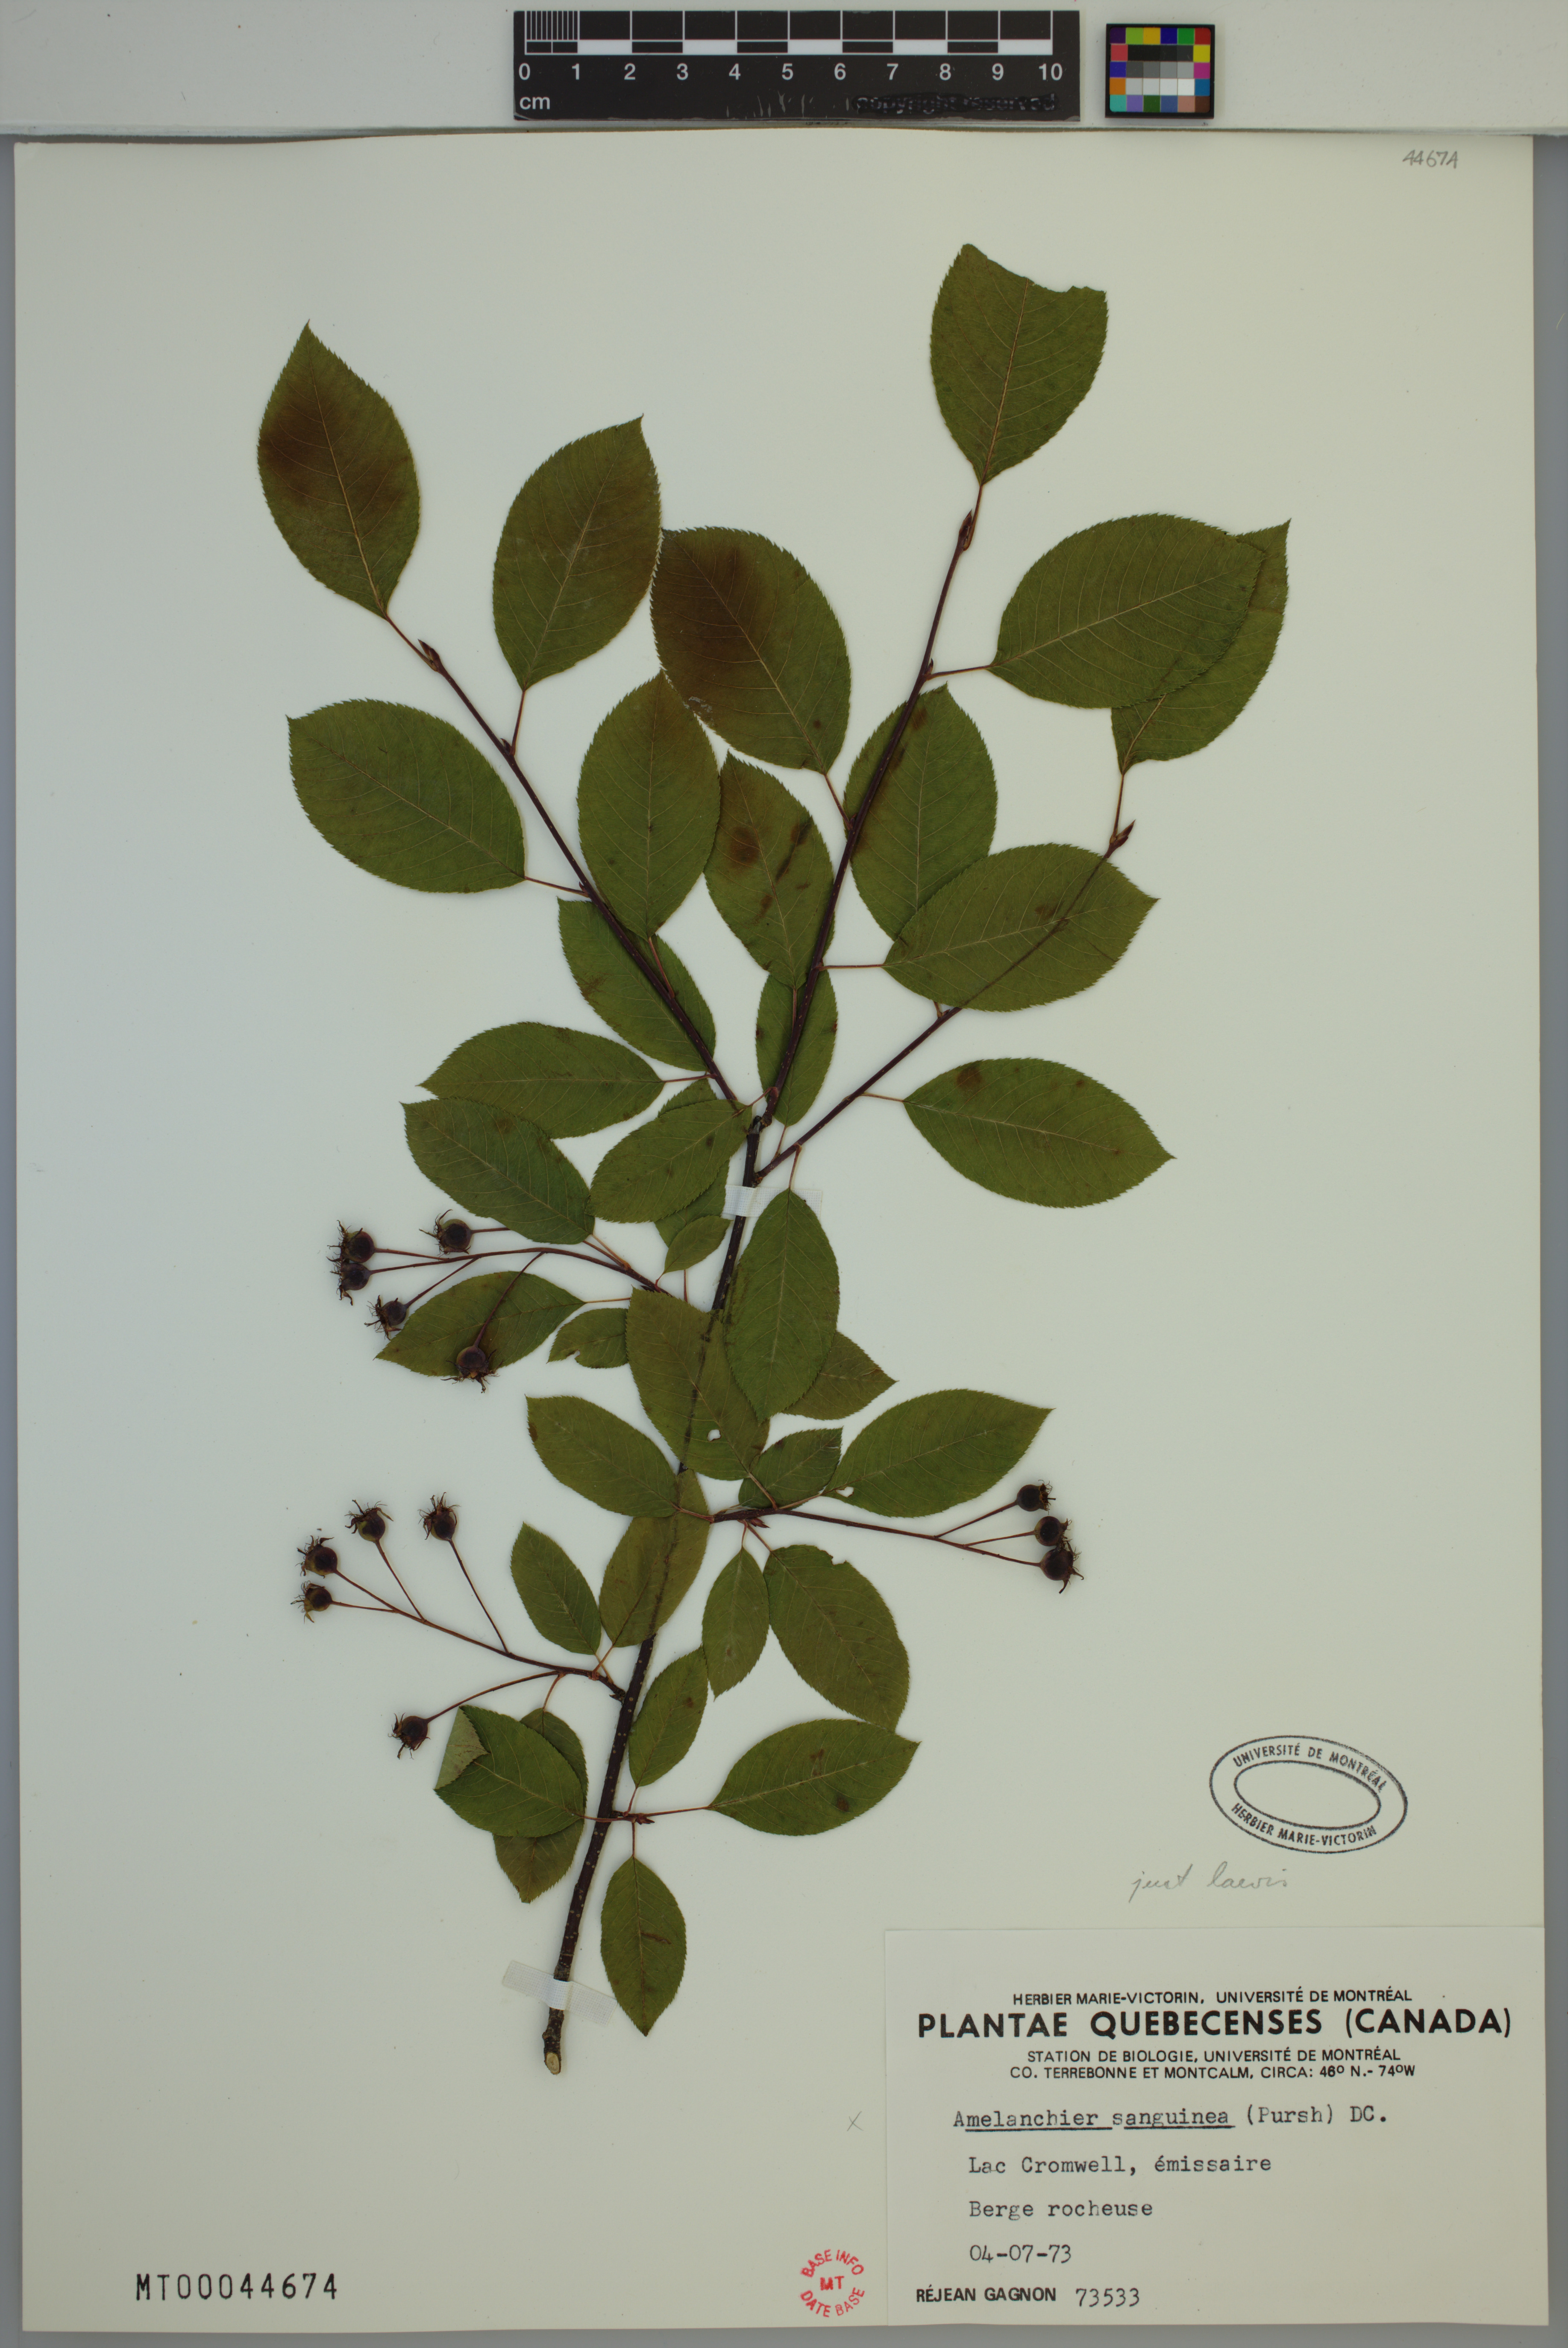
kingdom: Plantae
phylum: Tracheophyta
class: Magnoliopsida
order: Rosales
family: Rosaceae
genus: Amelanchier
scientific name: Amelanchier laevis
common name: Allegheny serviceberry
